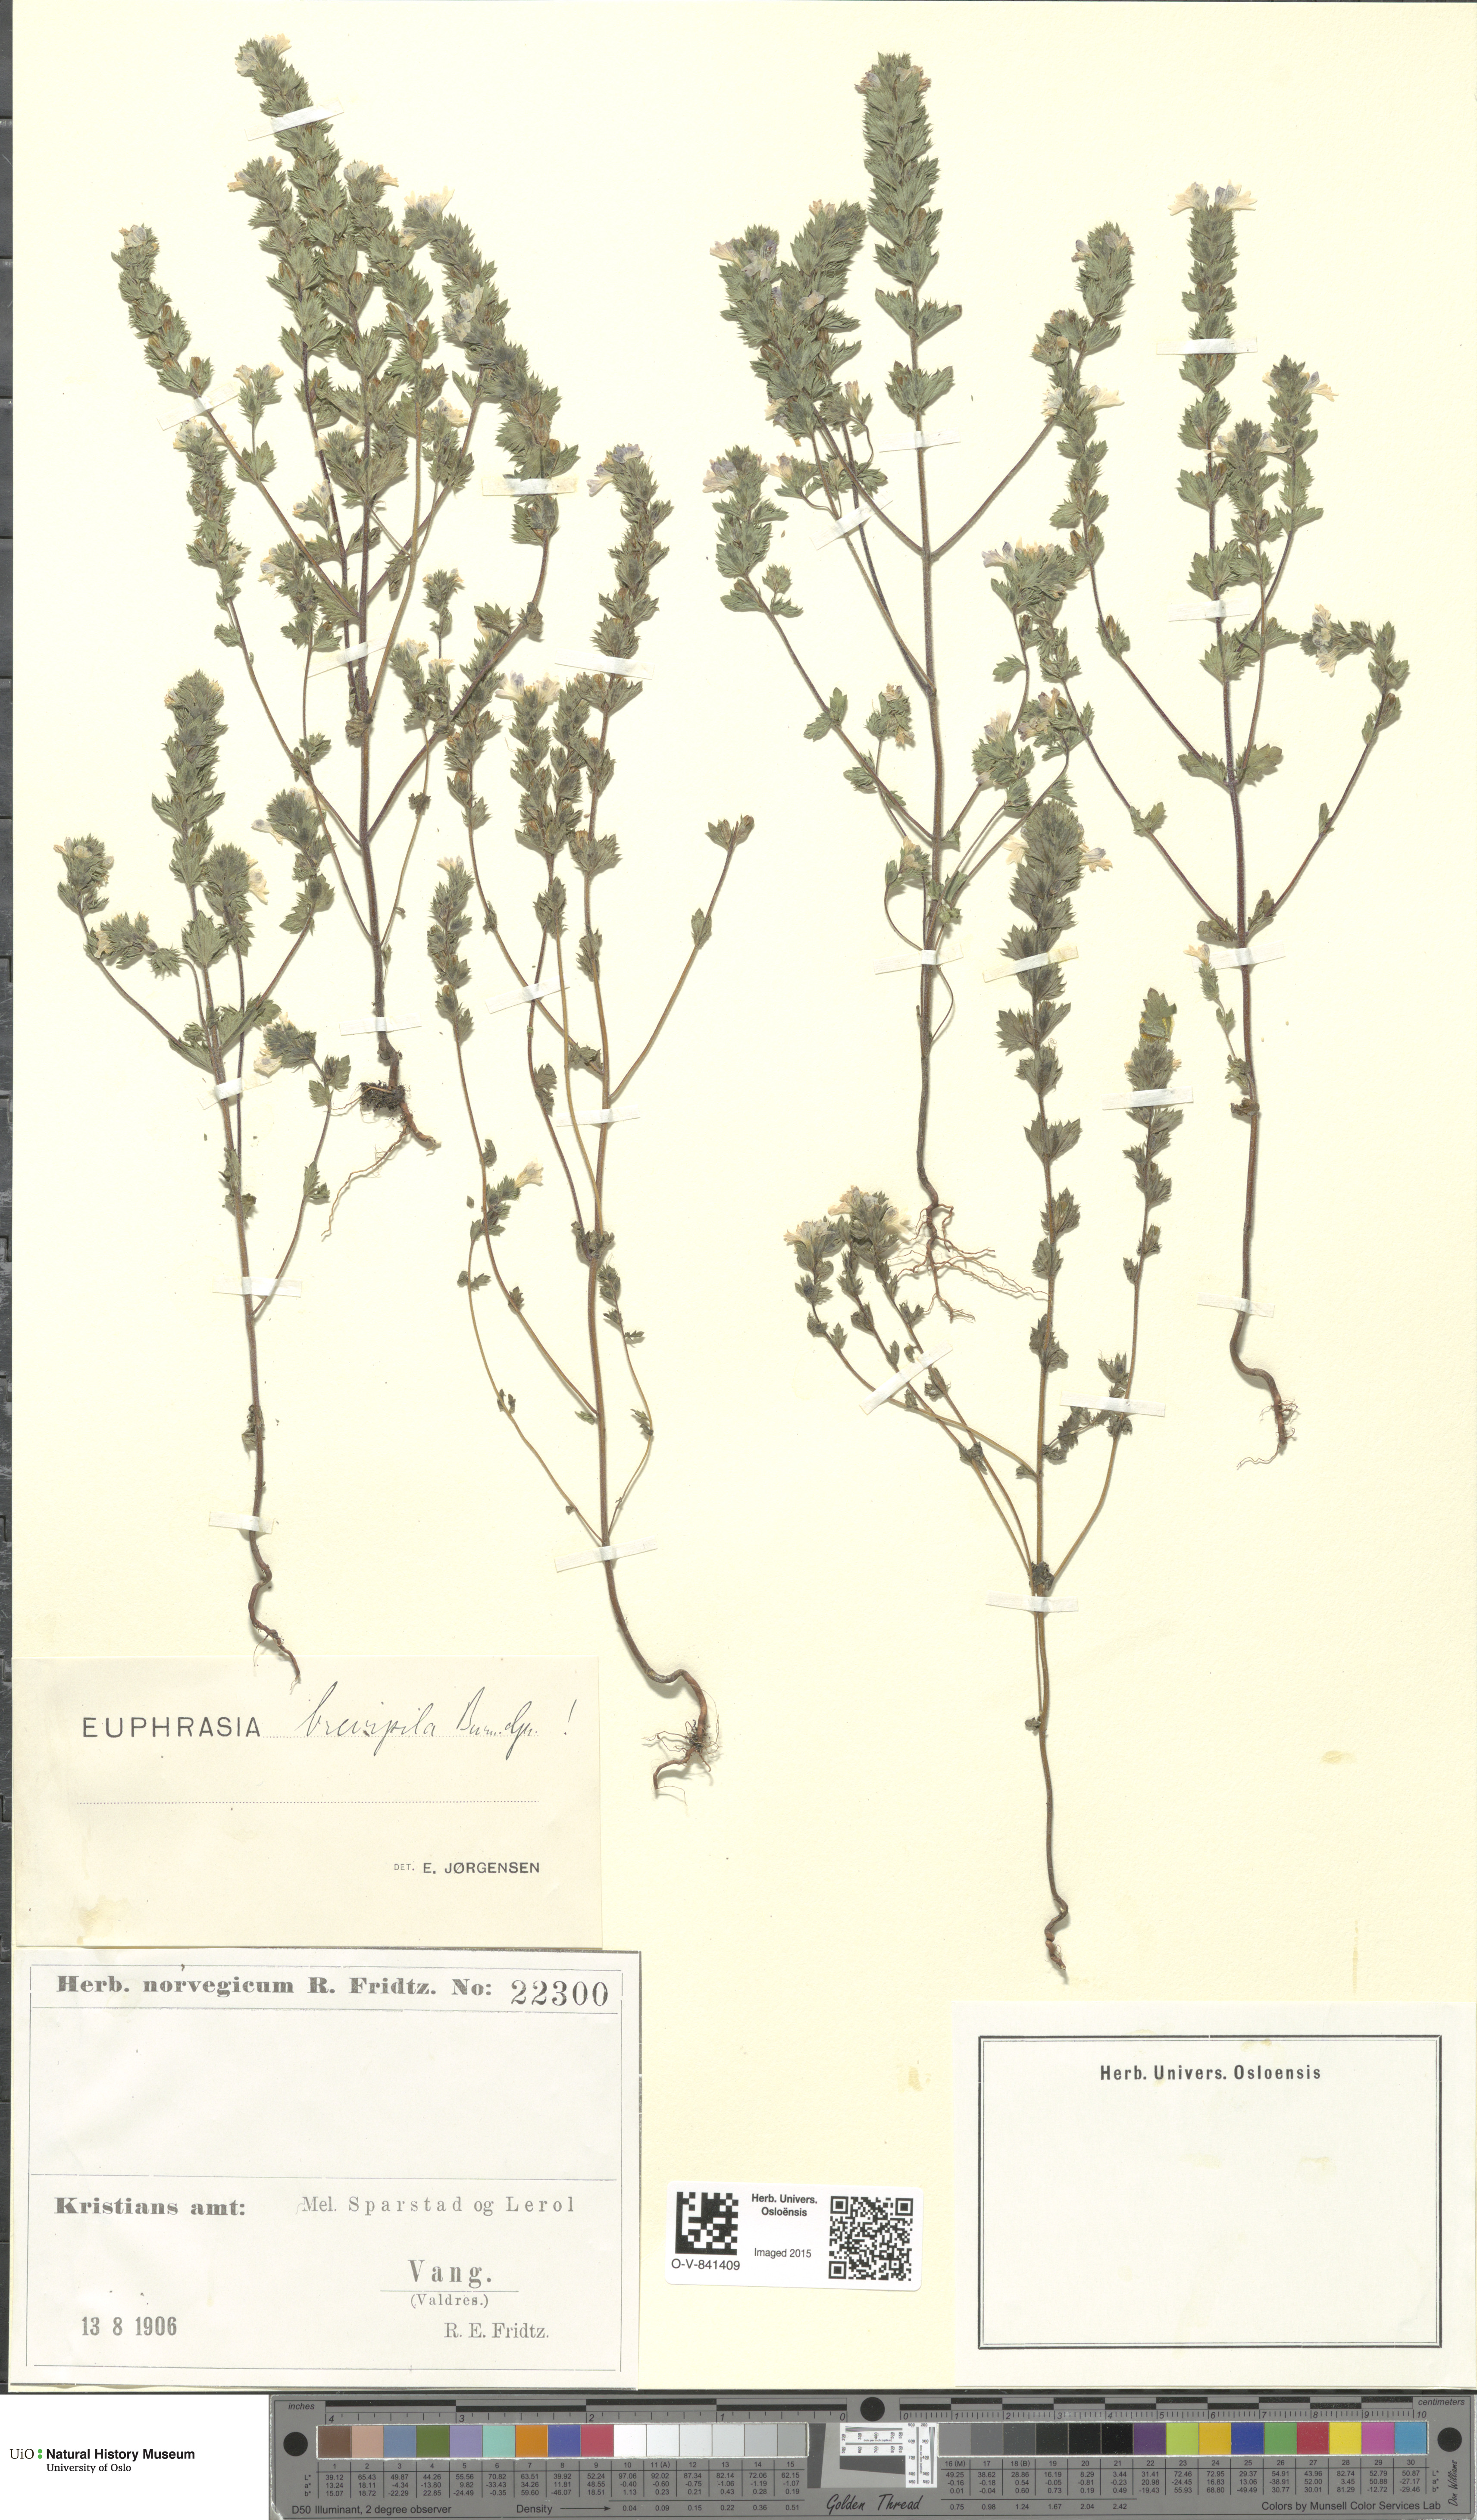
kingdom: Plantae
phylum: Tracheophyta
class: Magnoliopsida
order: Lamiales
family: Orobanchaceae
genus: Euphrasia
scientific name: Euphrasia vernalis
